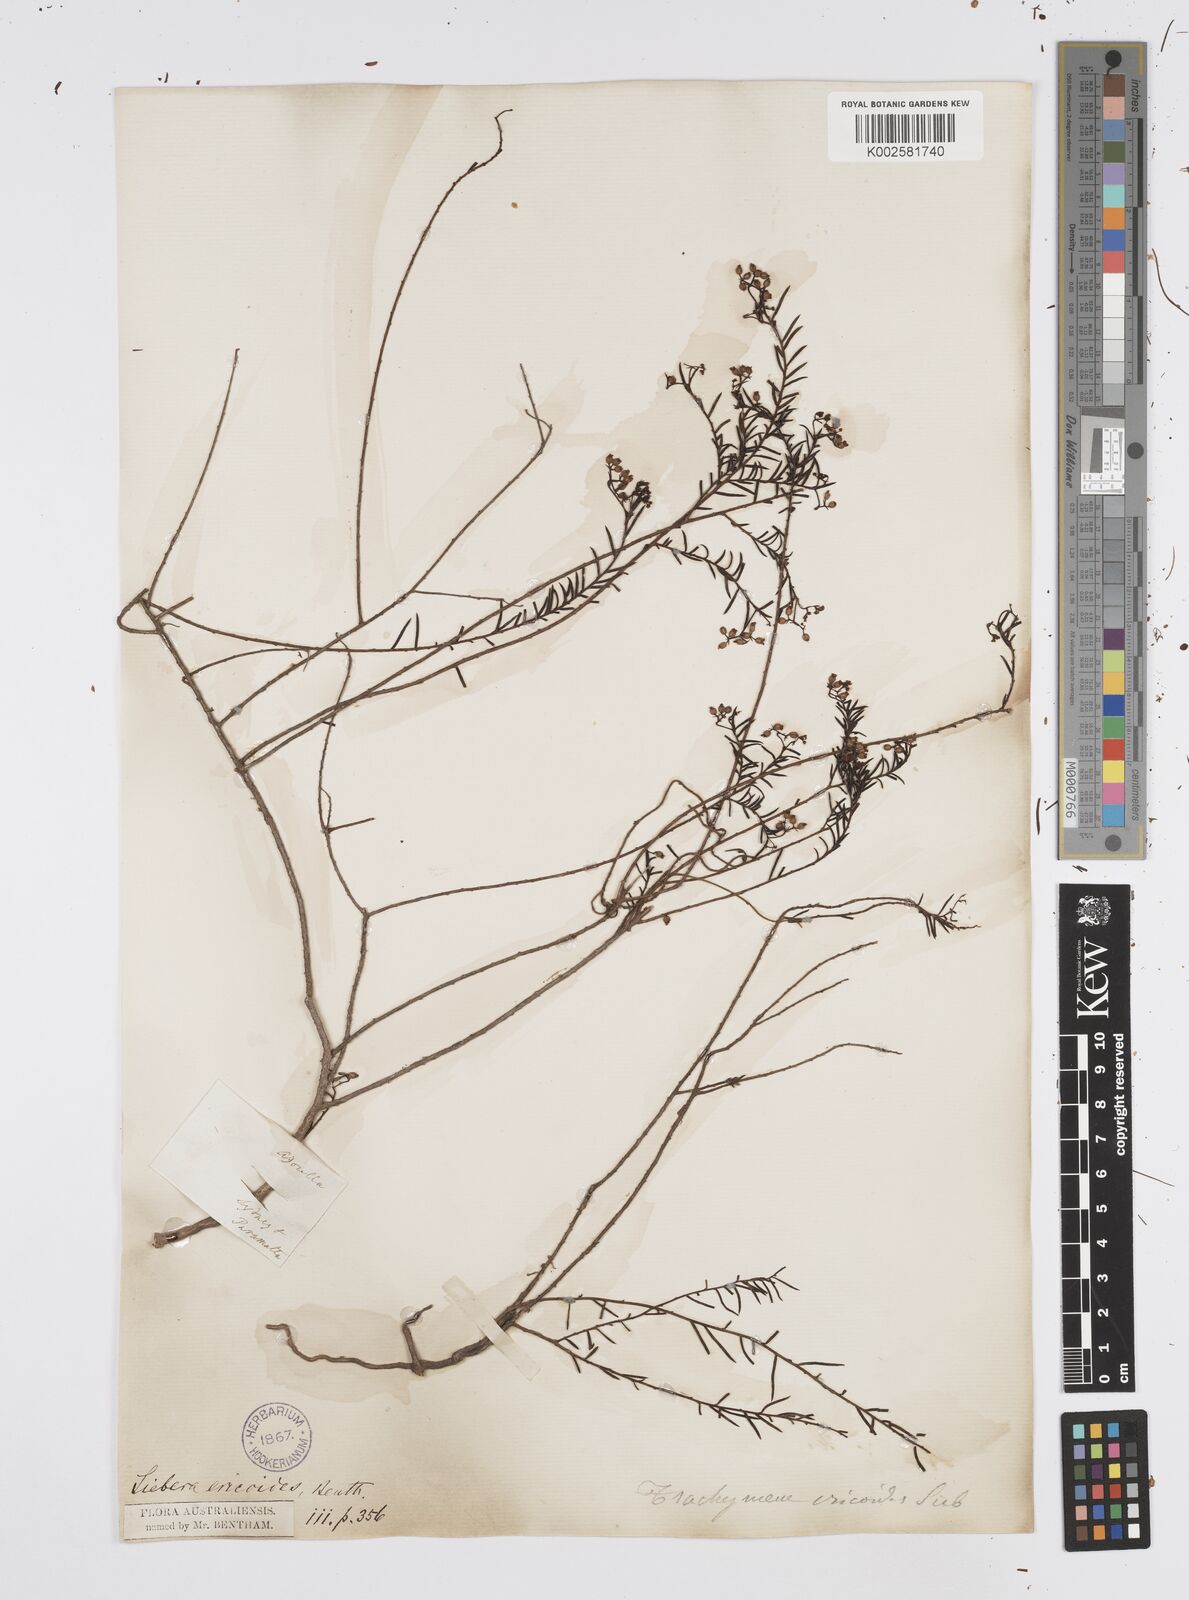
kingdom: Plantae
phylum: Tracheophyta
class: Magnoliopsida
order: Apiales
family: Apiaceae
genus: Platysace
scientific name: Platysace ericoides
